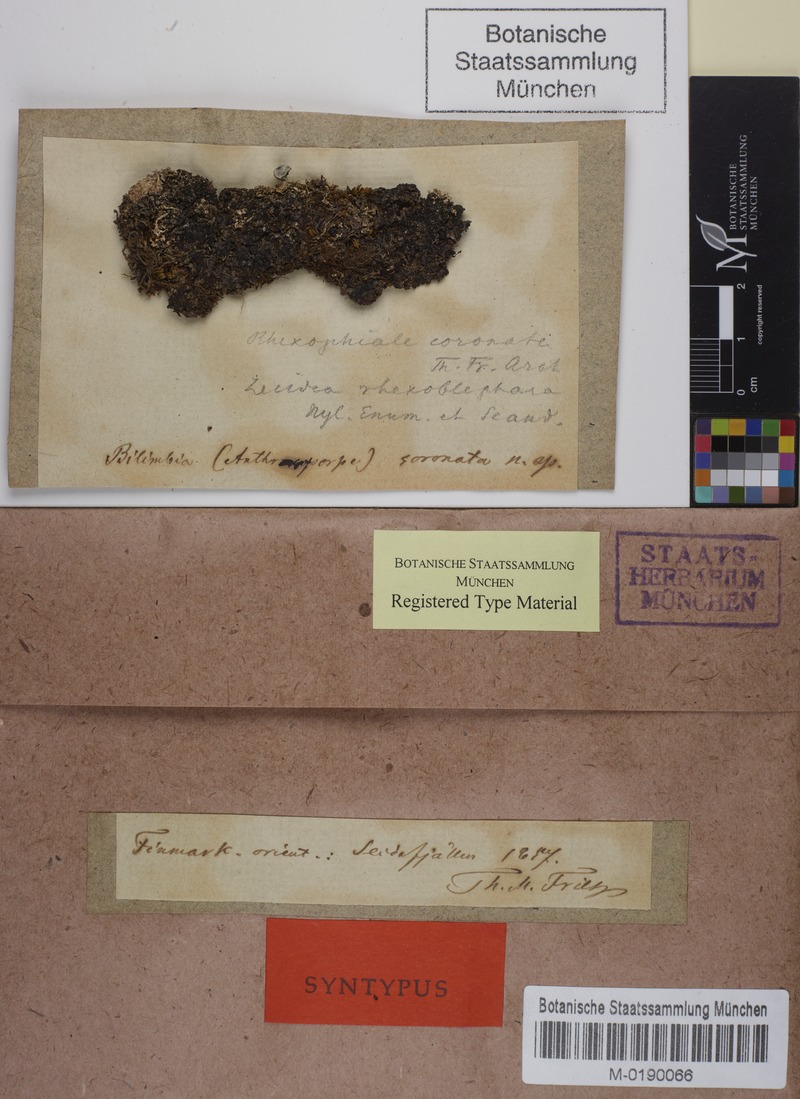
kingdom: Fungi
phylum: Ascomycota
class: Lecanoromycetes
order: Ostropales
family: Sagiolechiaceae
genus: Rhexophiale
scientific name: Rhexophiale rhexoblephara
